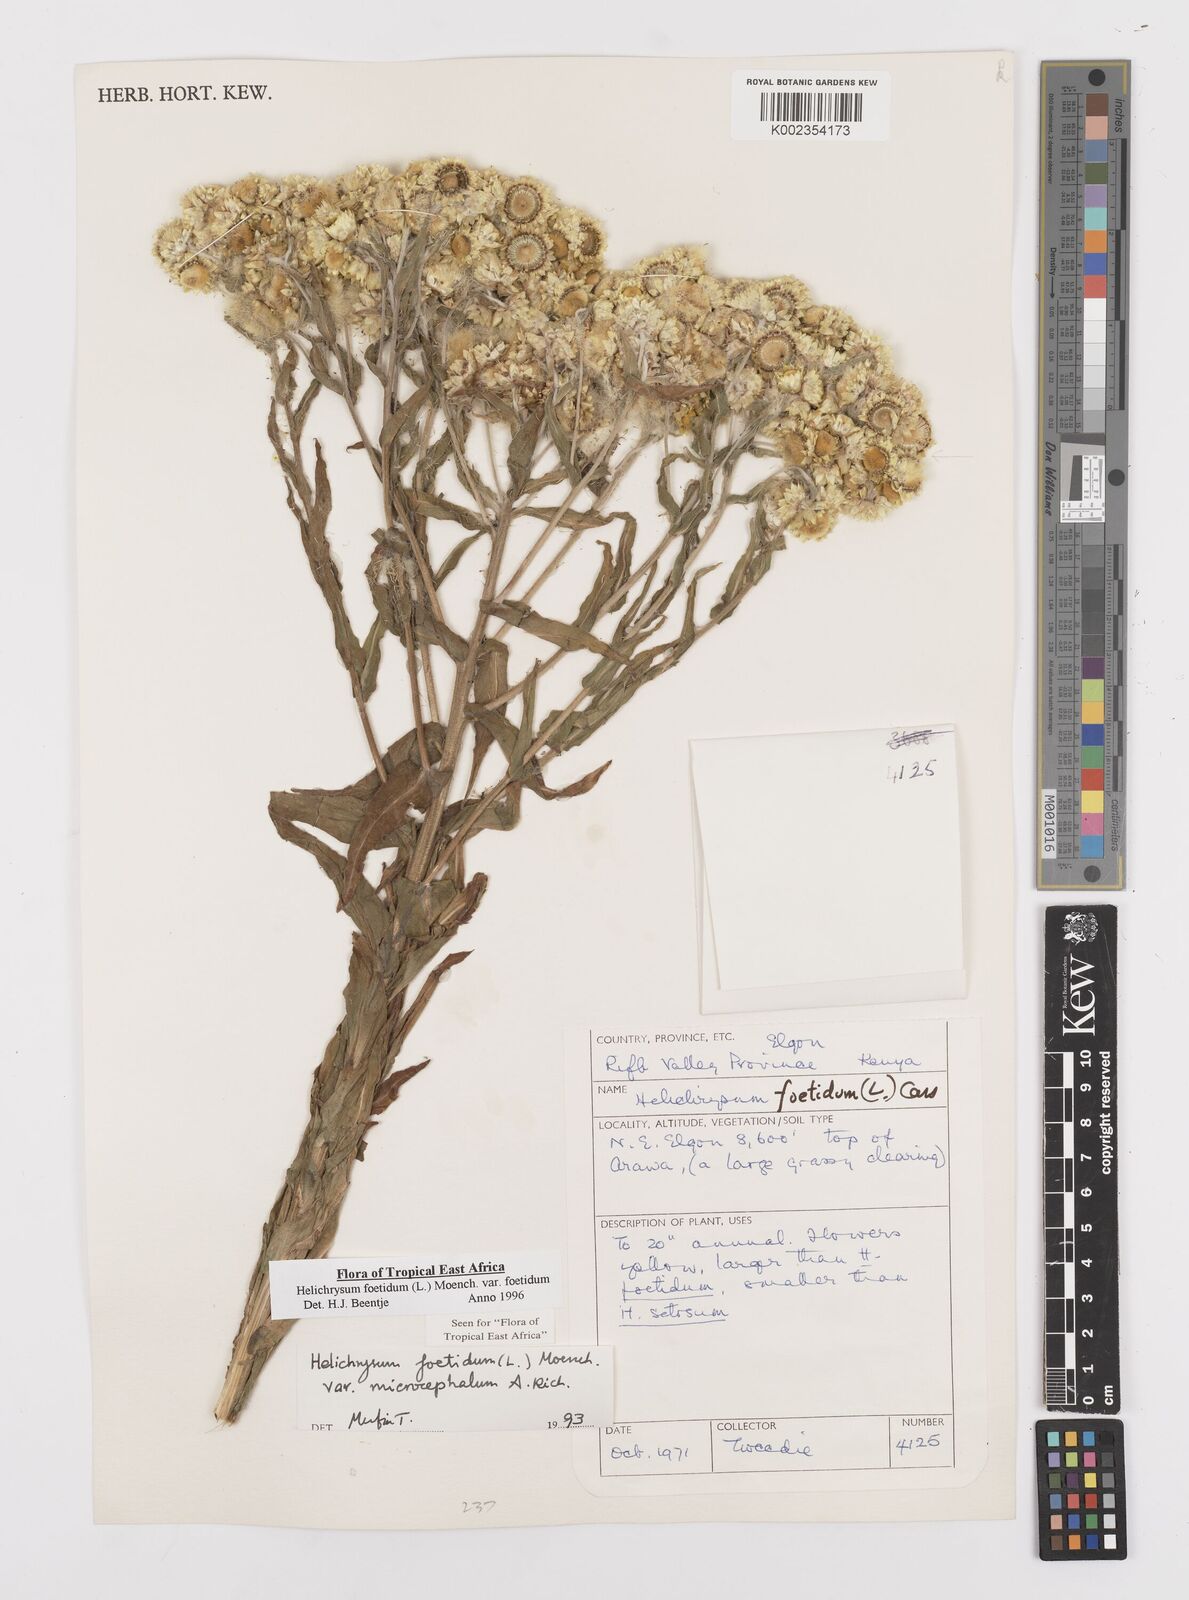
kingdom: Plantae
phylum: Tracheophyta
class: Magnoliopsida
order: Asterales
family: Asteraceae
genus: Helichrysum
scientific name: Helichrysum foetidum
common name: Stinking everlasting
